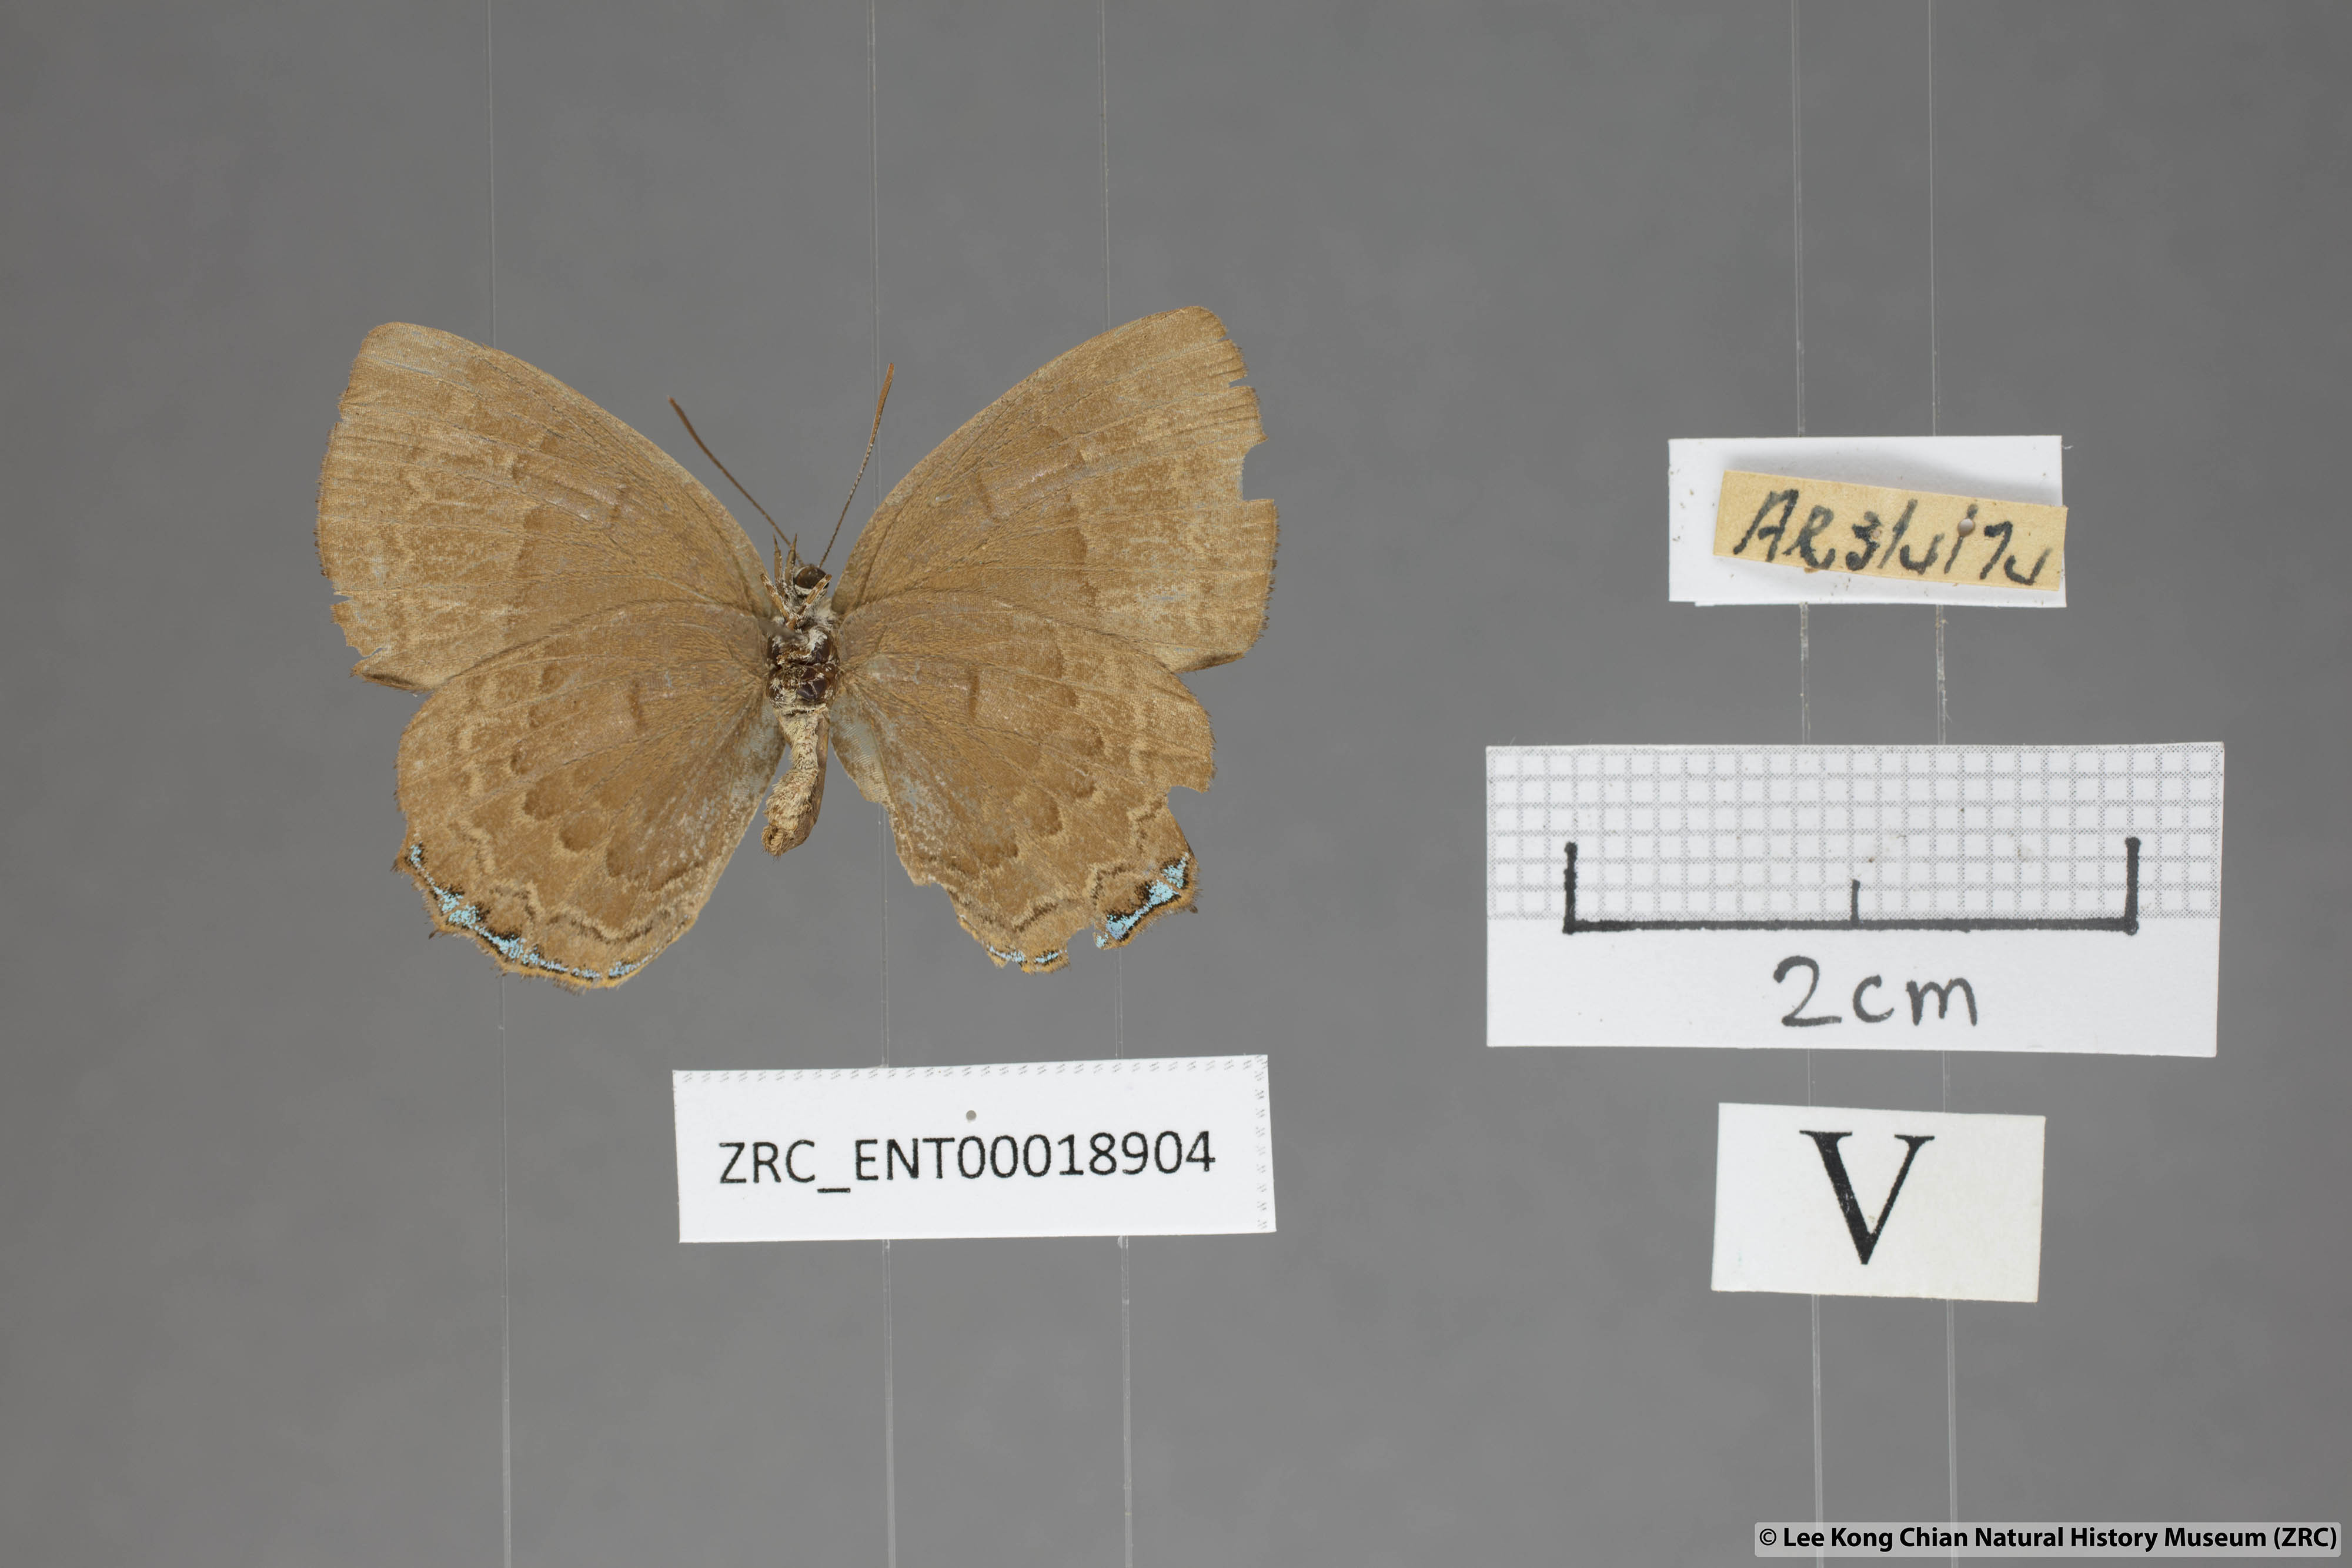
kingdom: Animalia
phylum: Arthropoda
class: Insecta
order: Lepidoptera
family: Lycaenidae
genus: Simiskina
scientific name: Simiskina
